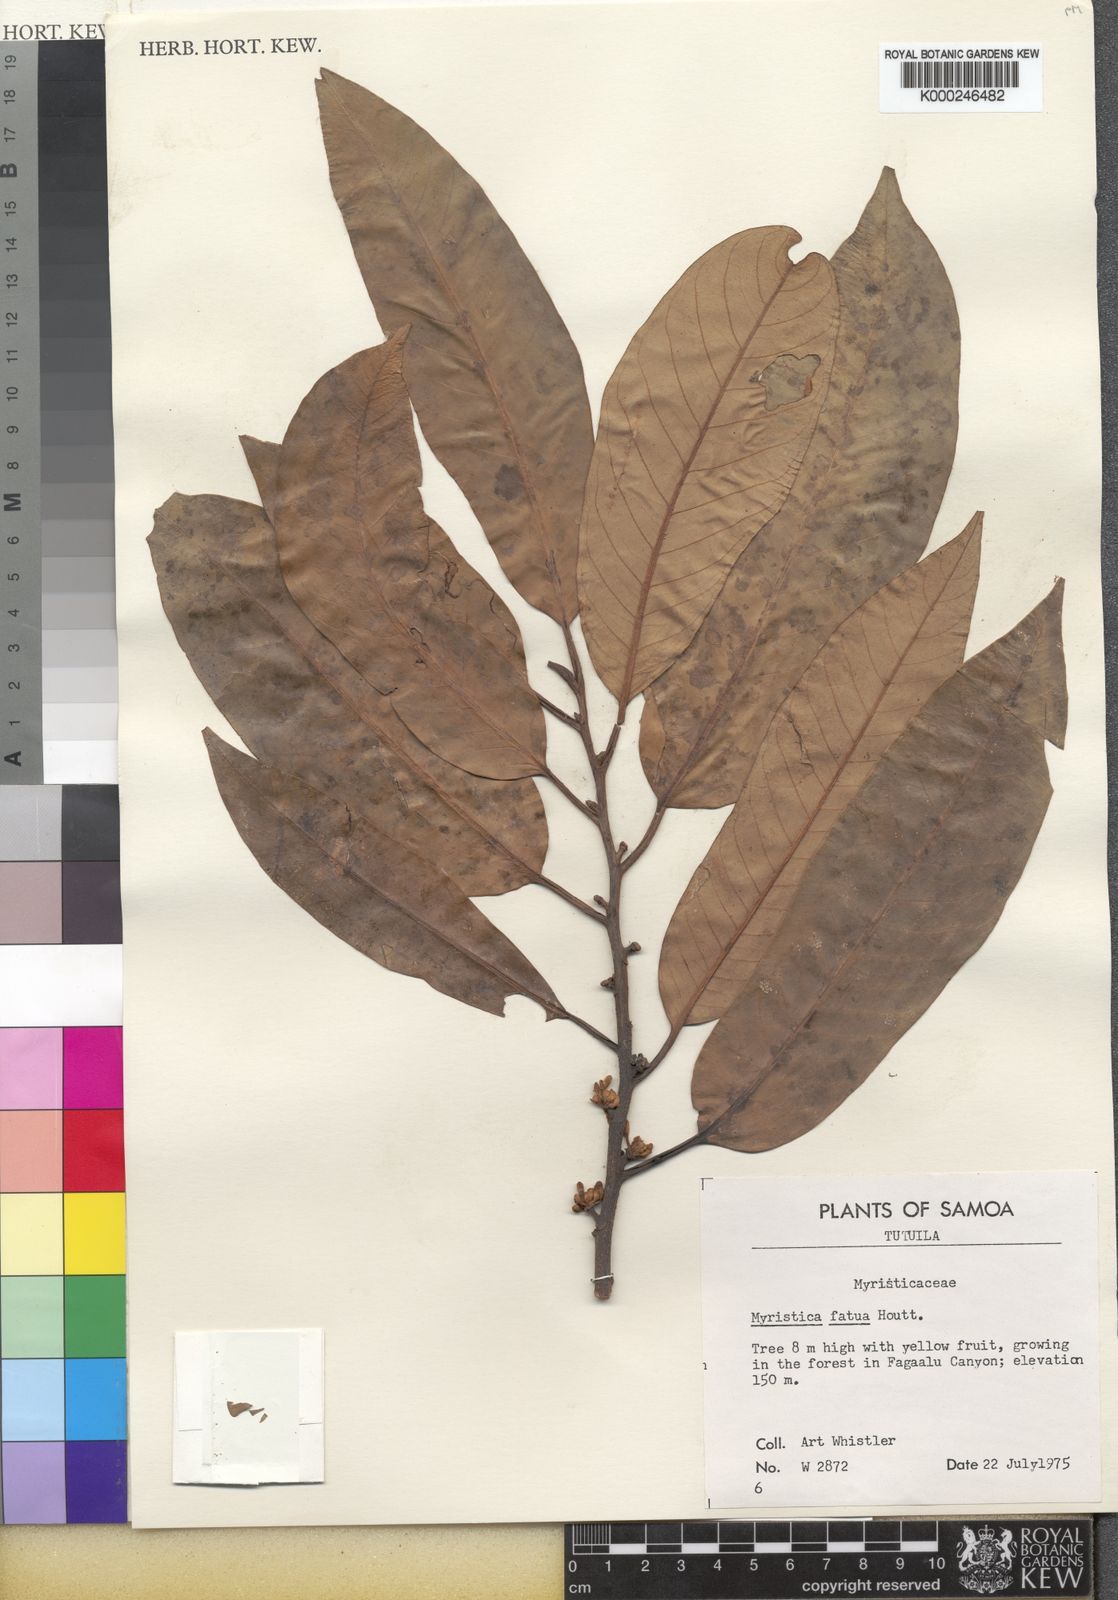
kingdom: Plantae
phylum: Tracheophyta
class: Magnoliopsida
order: Magnoliales
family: Myristicaceae
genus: Myristica
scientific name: Myristica fatua
